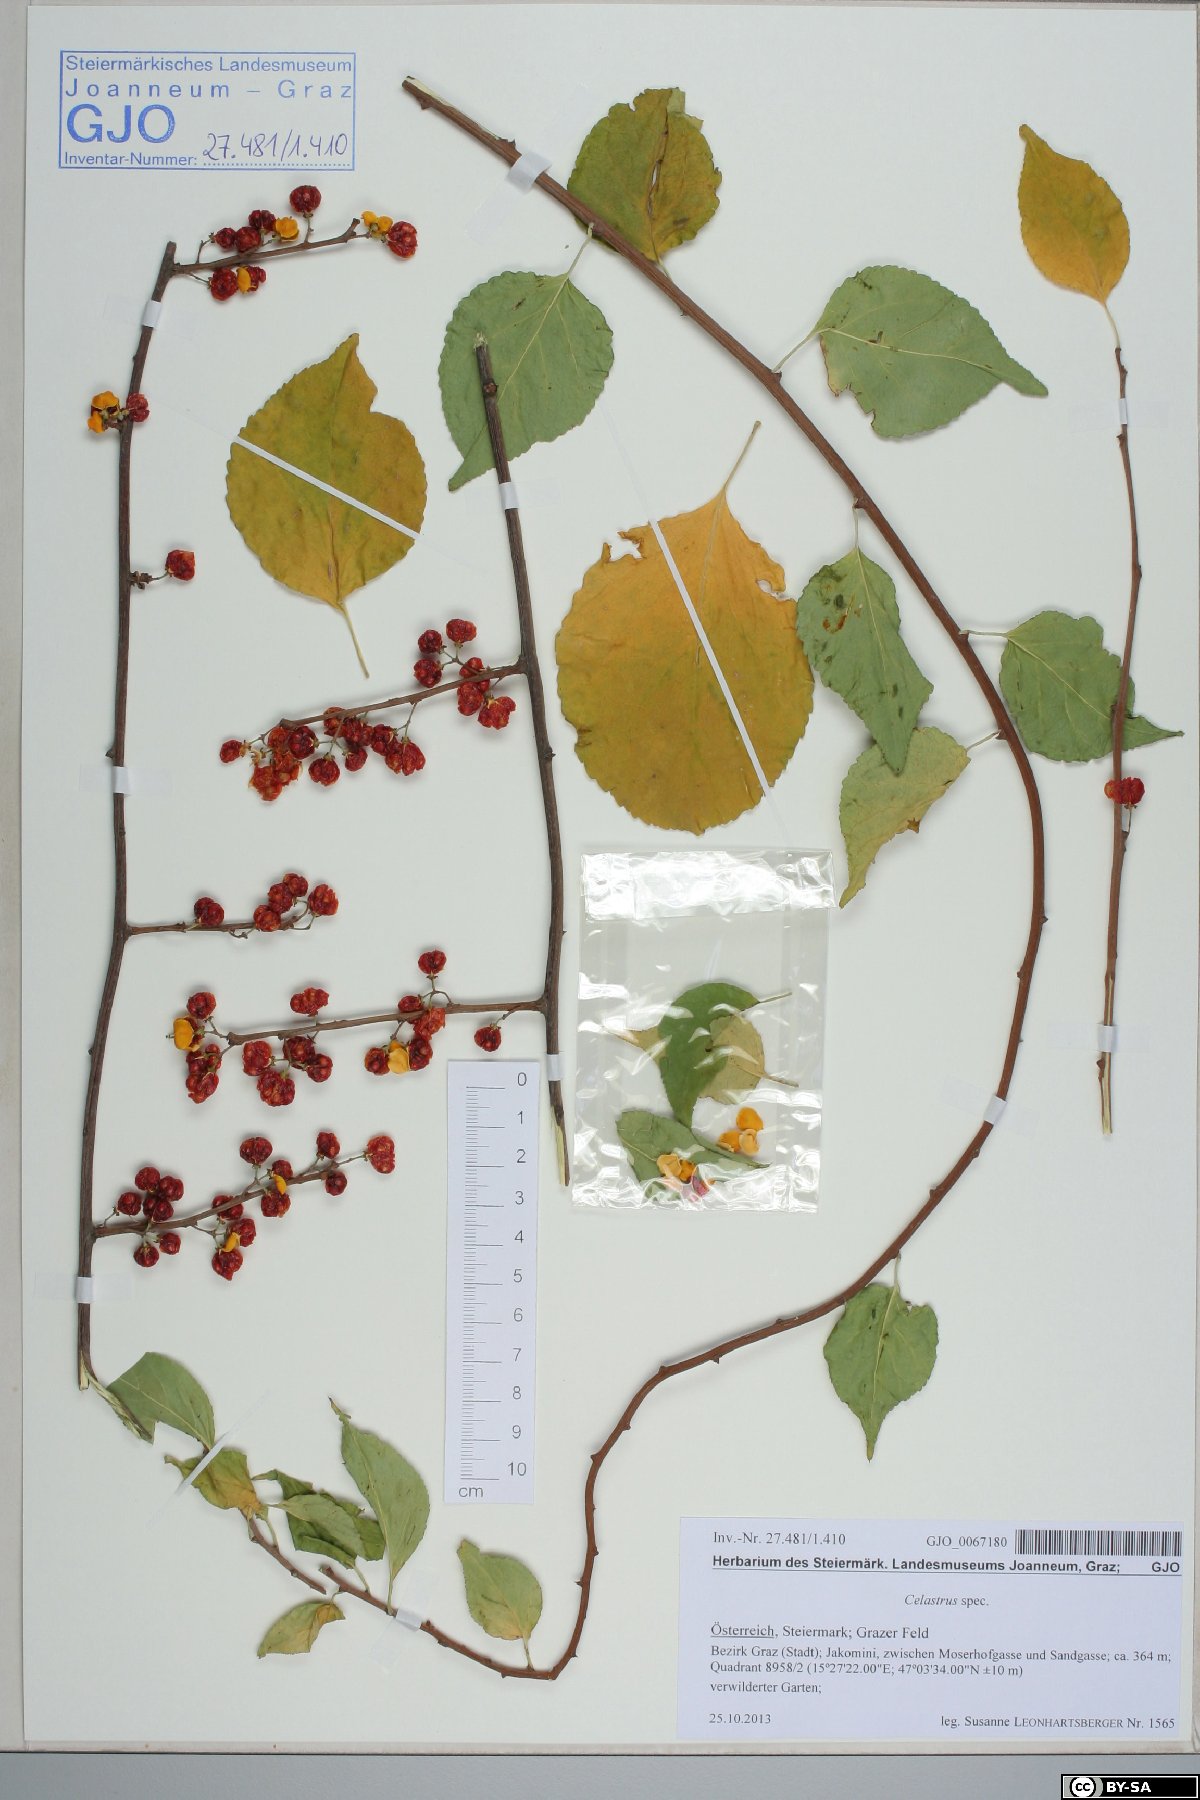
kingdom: Plantae
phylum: Tracheophyta
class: Magnoliopsida
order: Celastrales
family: Celastraceae
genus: Celastrus
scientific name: Celastrus
